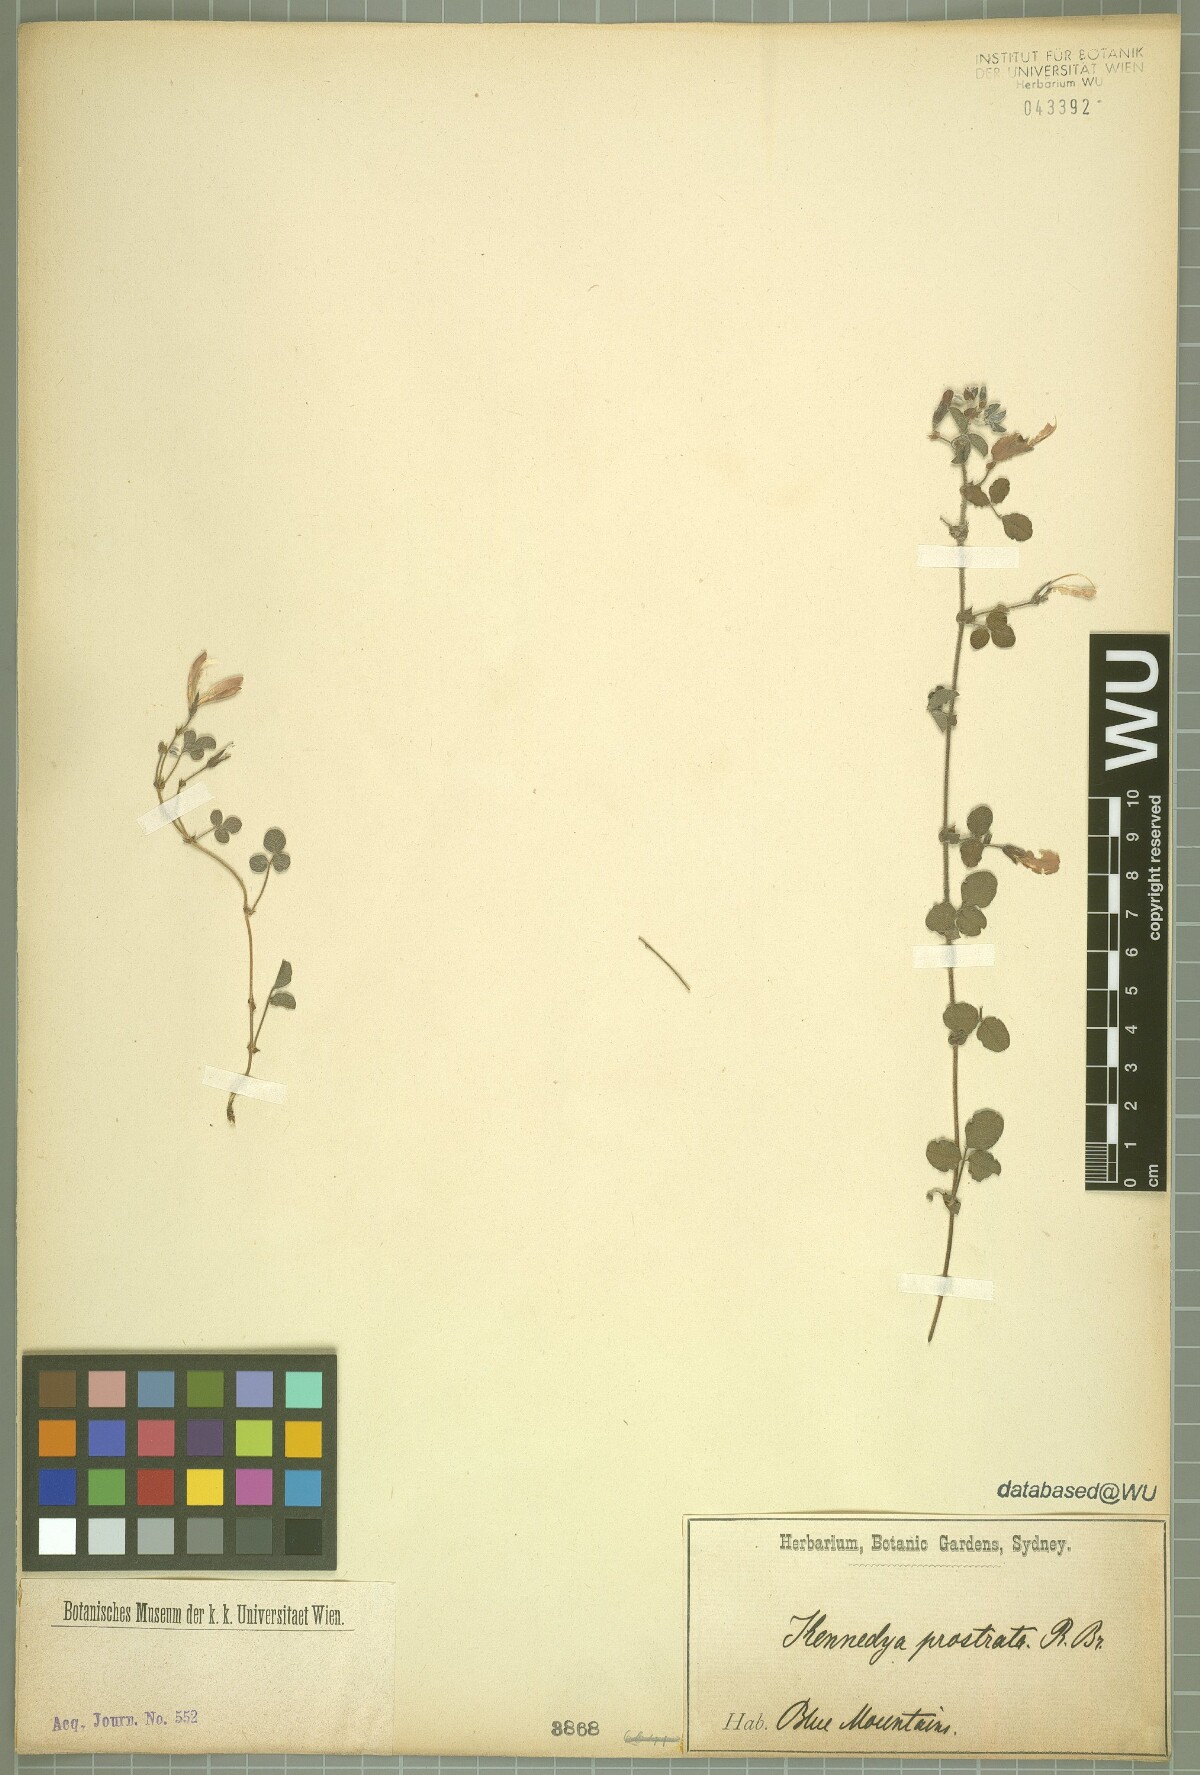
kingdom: Plantae
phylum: Tracheophyta
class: Magnoliopsida
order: Fabales
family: Fabaceae
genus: Kennedia
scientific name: Kennedia prostrata
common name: Running-postman
